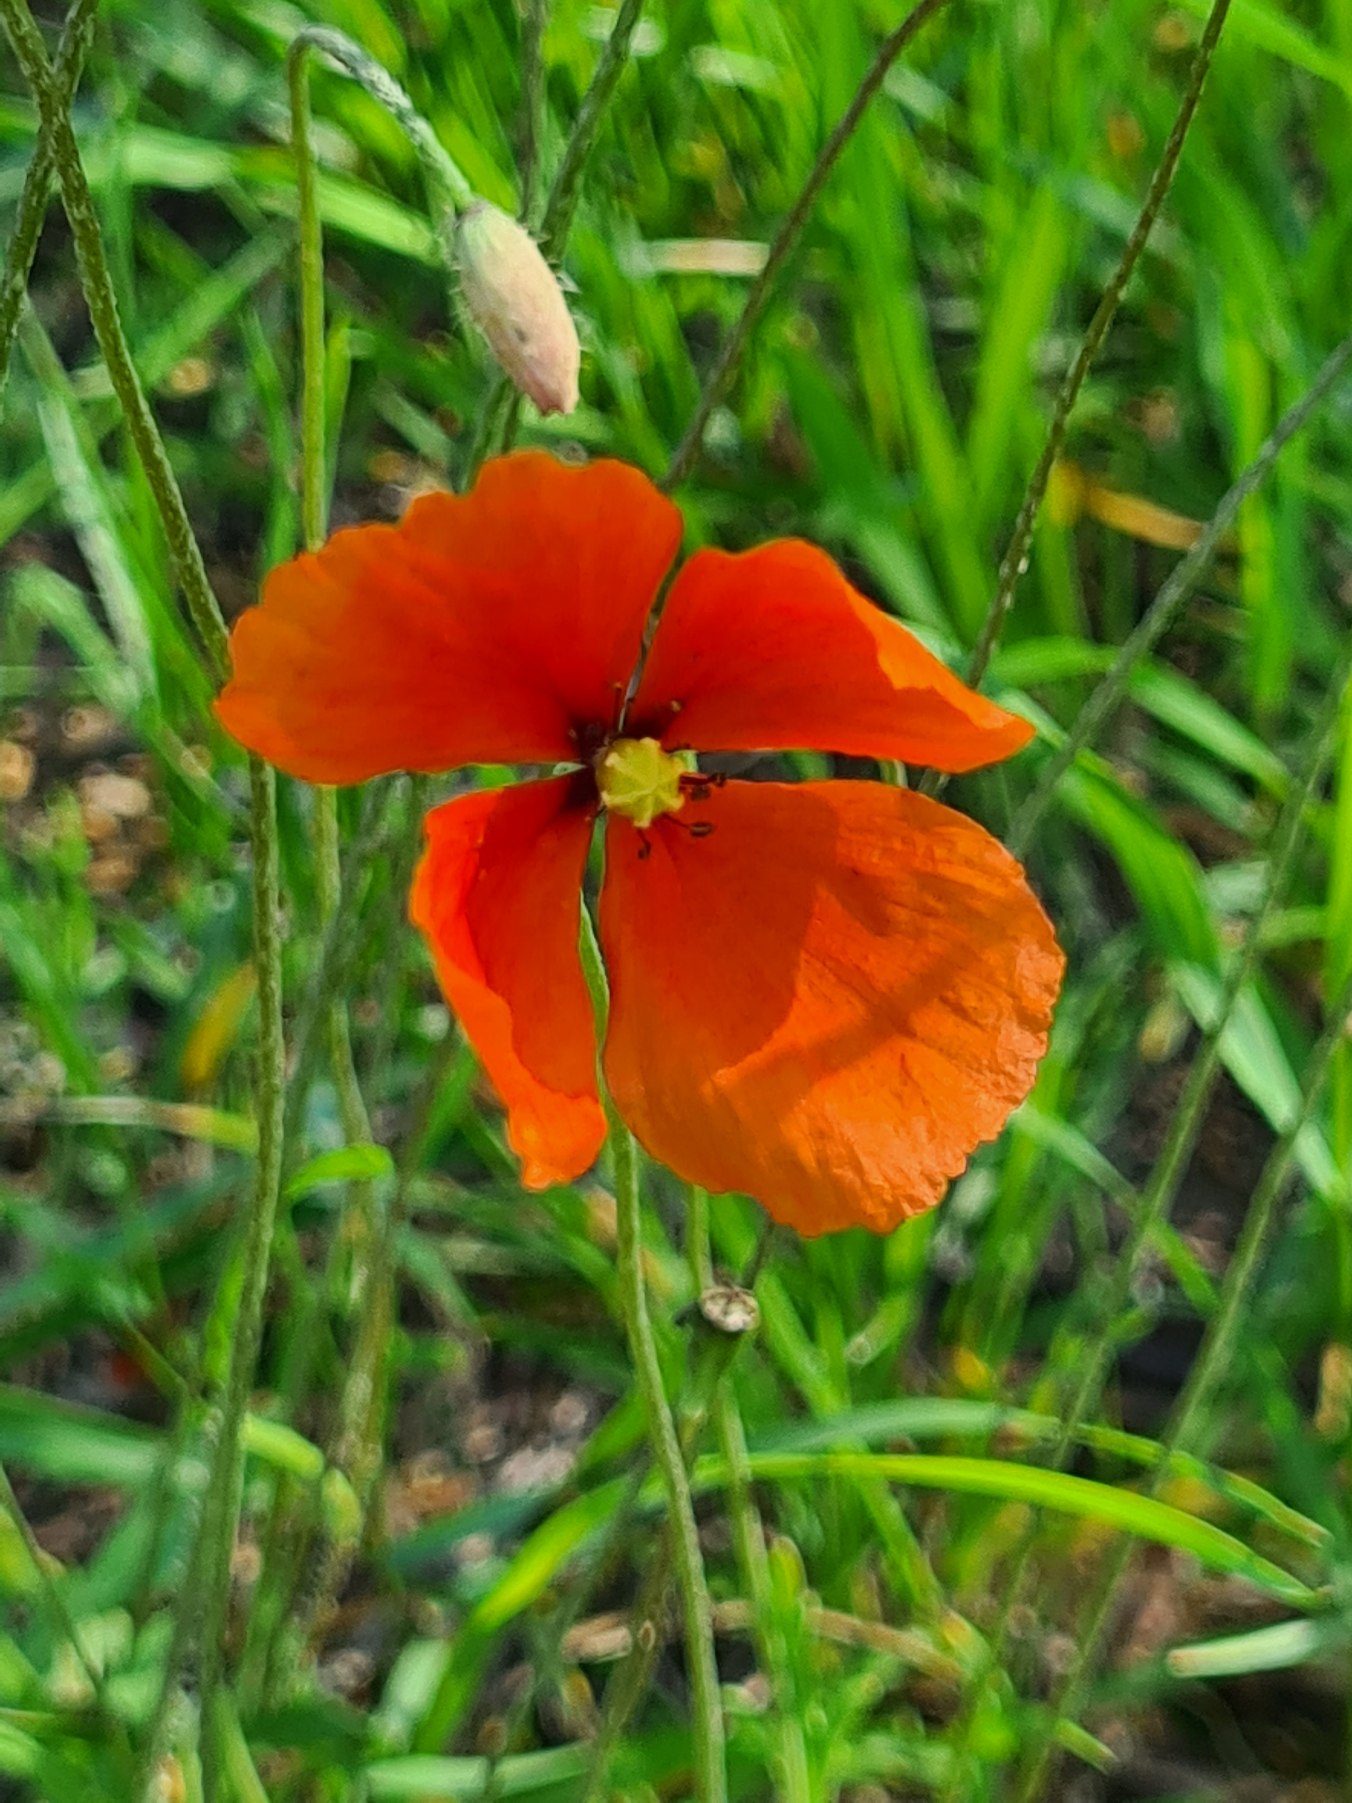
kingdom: Plantae
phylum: Tracheophyta
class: Magnoliopsida
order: Ranunculales
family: Papaveraceae
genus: Papaver
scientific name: Papaver dubium
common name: Gærde-valmue
